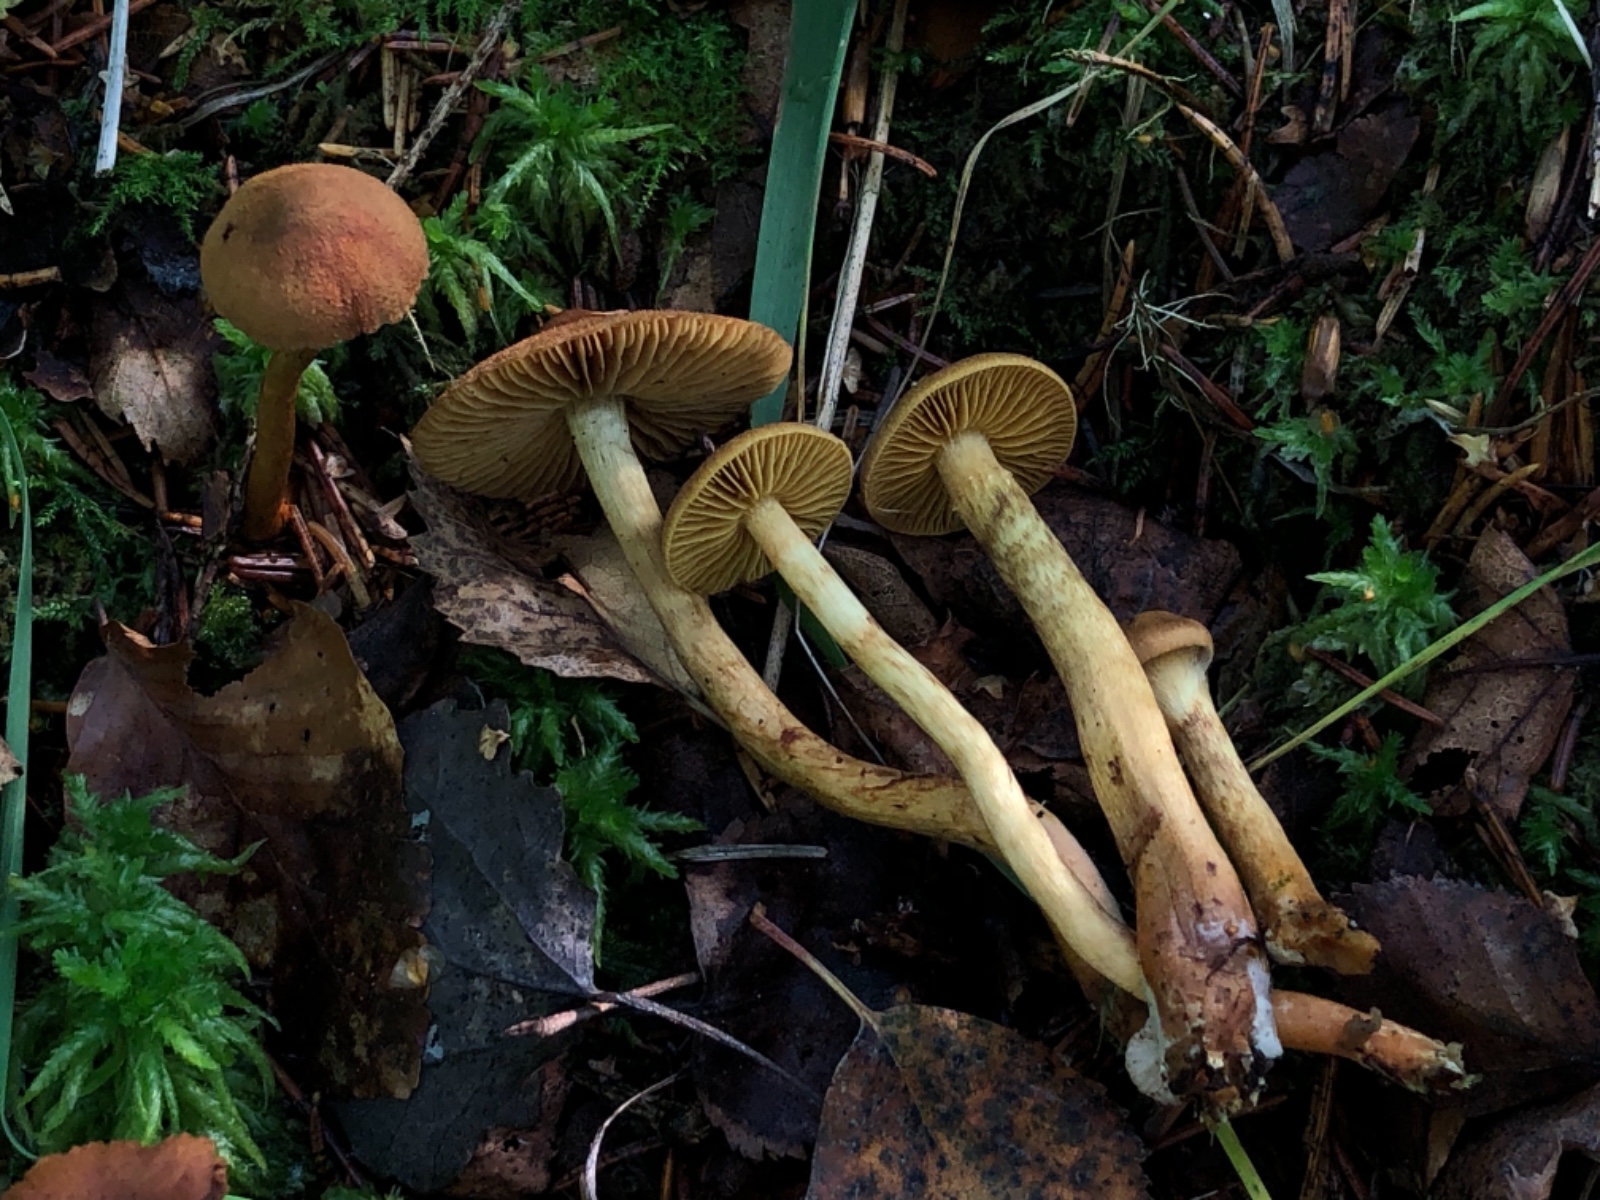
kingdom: Fungi
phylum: Basidiomycota
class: Agaricomycetes
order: Agaricales
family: Cortinariaceae
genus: Cortinarius
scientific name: Cortinarius chrysolitus
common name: safranfodet slørhat
